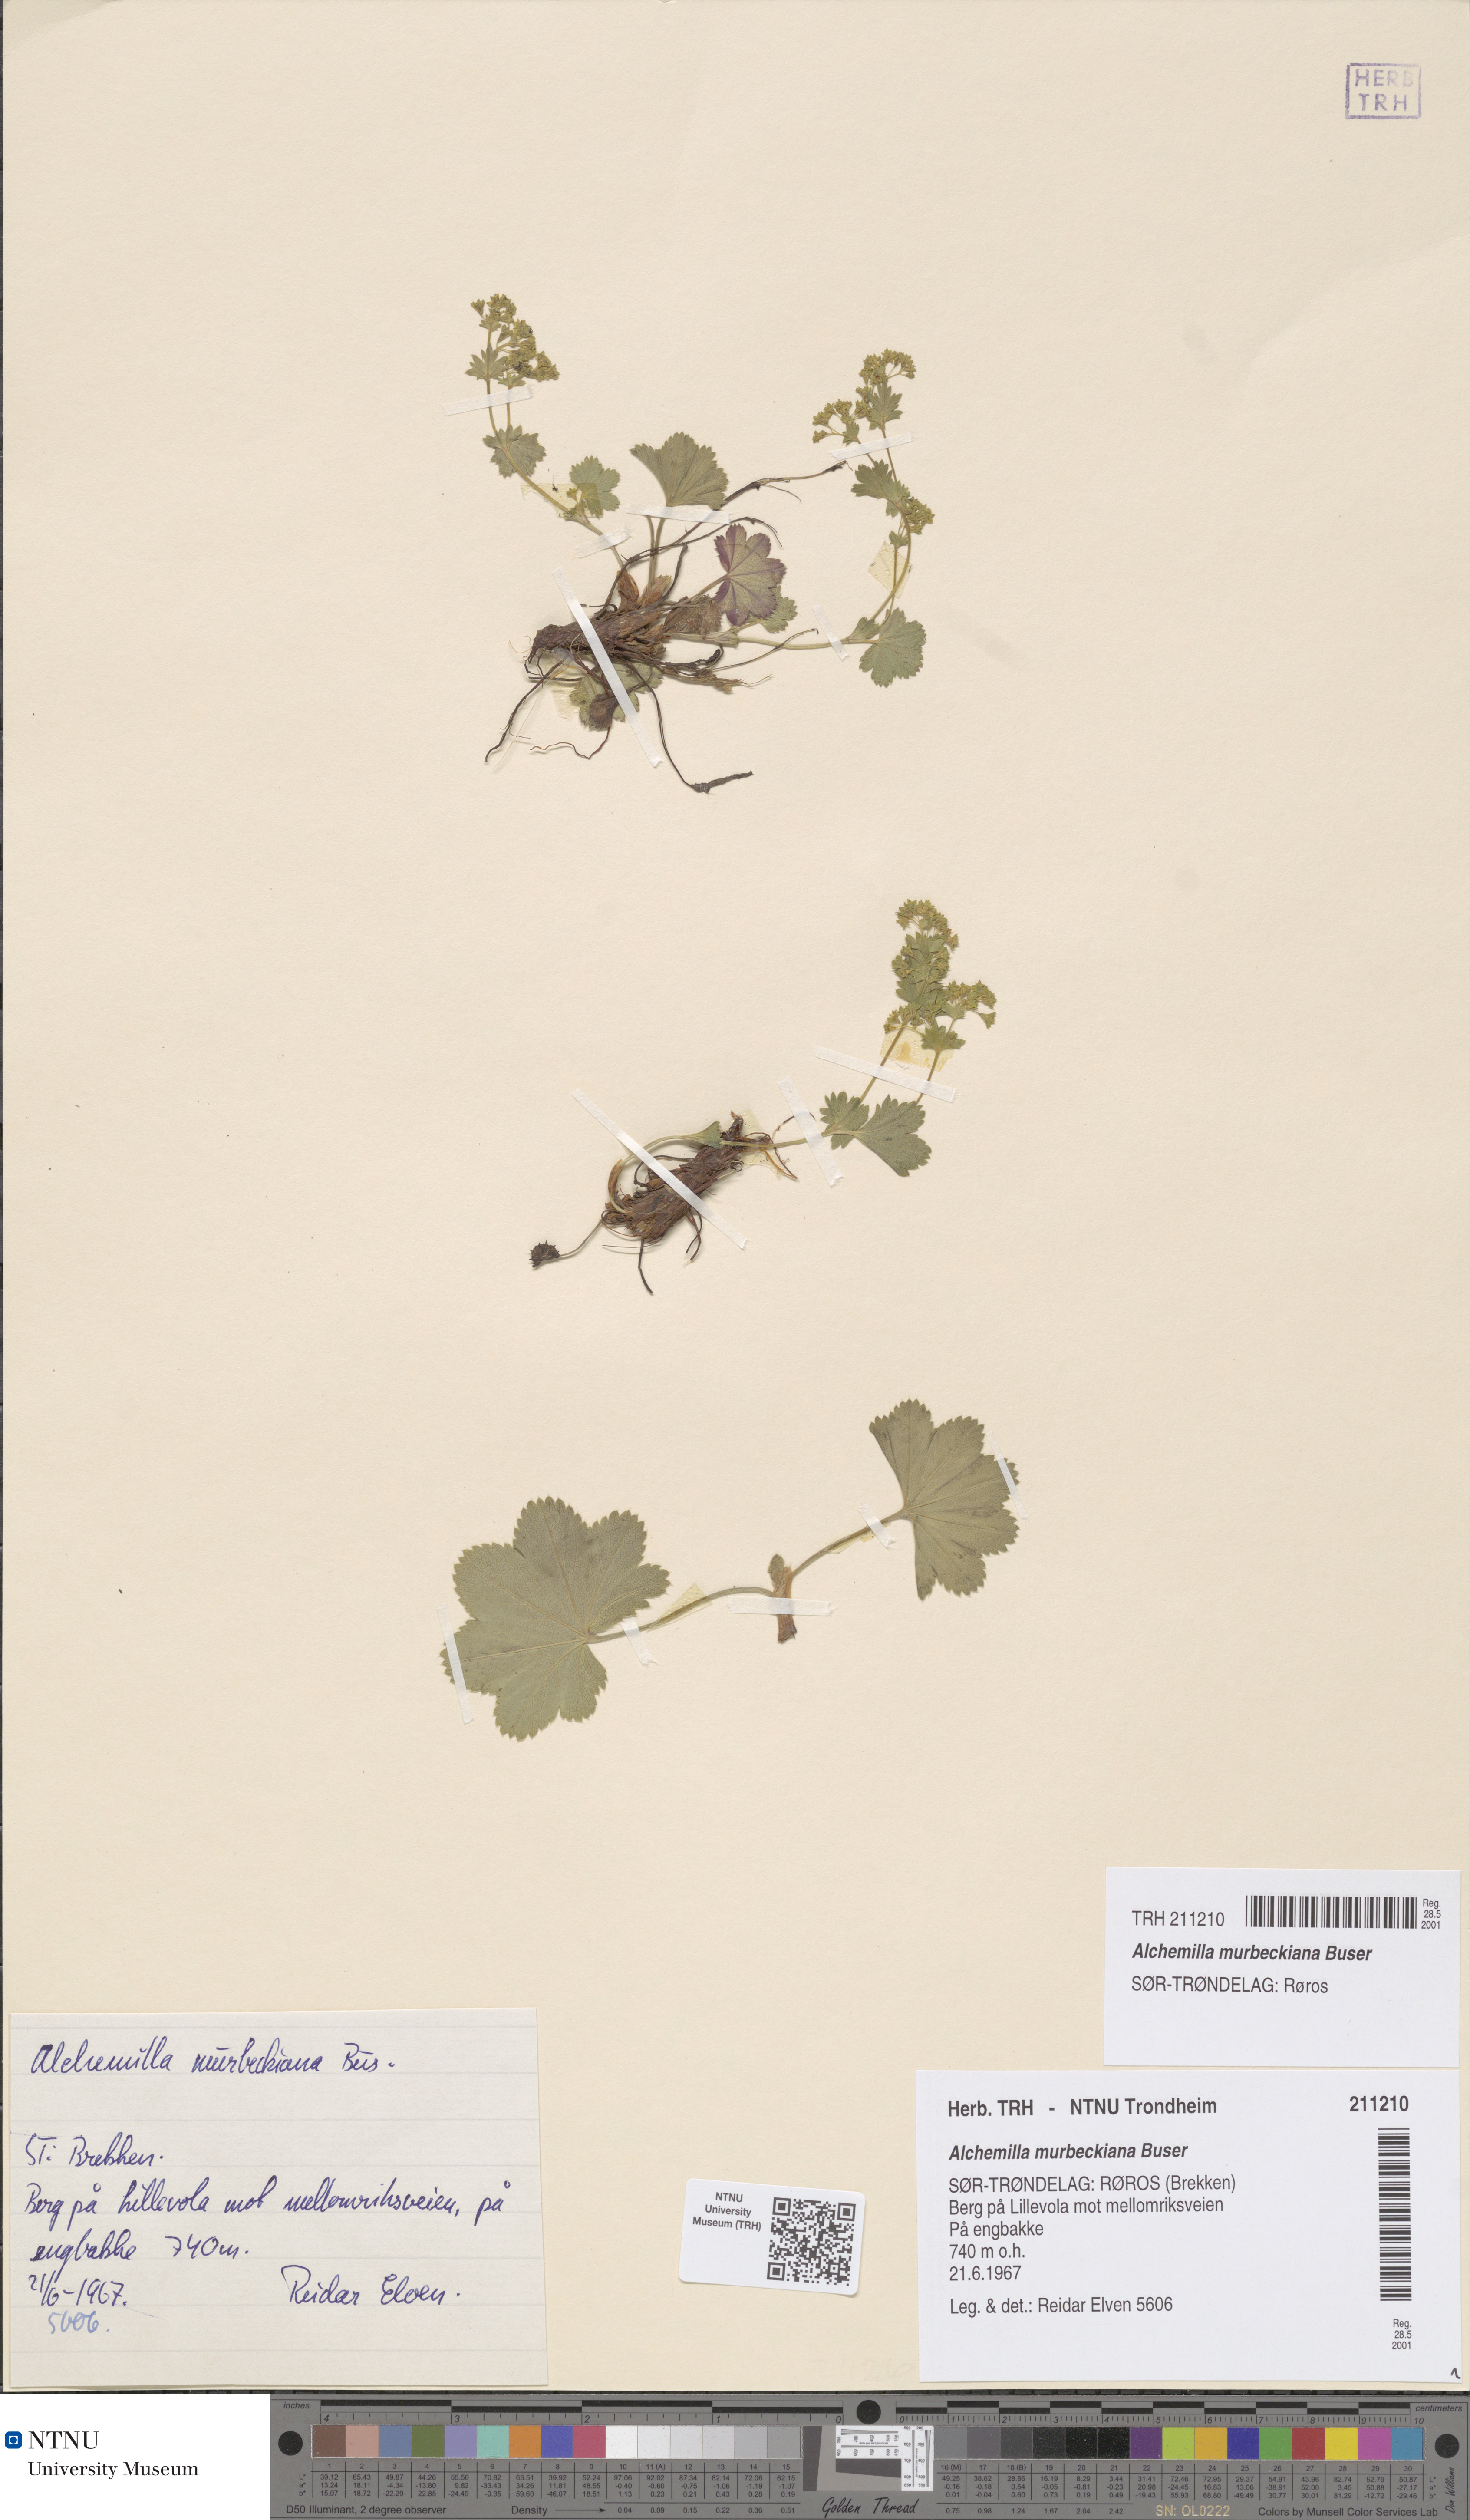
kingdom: Plantae
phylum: Tracheophyta
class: Magnoliopsida
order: Rosales
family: Rosaceae
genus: Alchemilla
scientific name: Alchemilla murbeckiana
